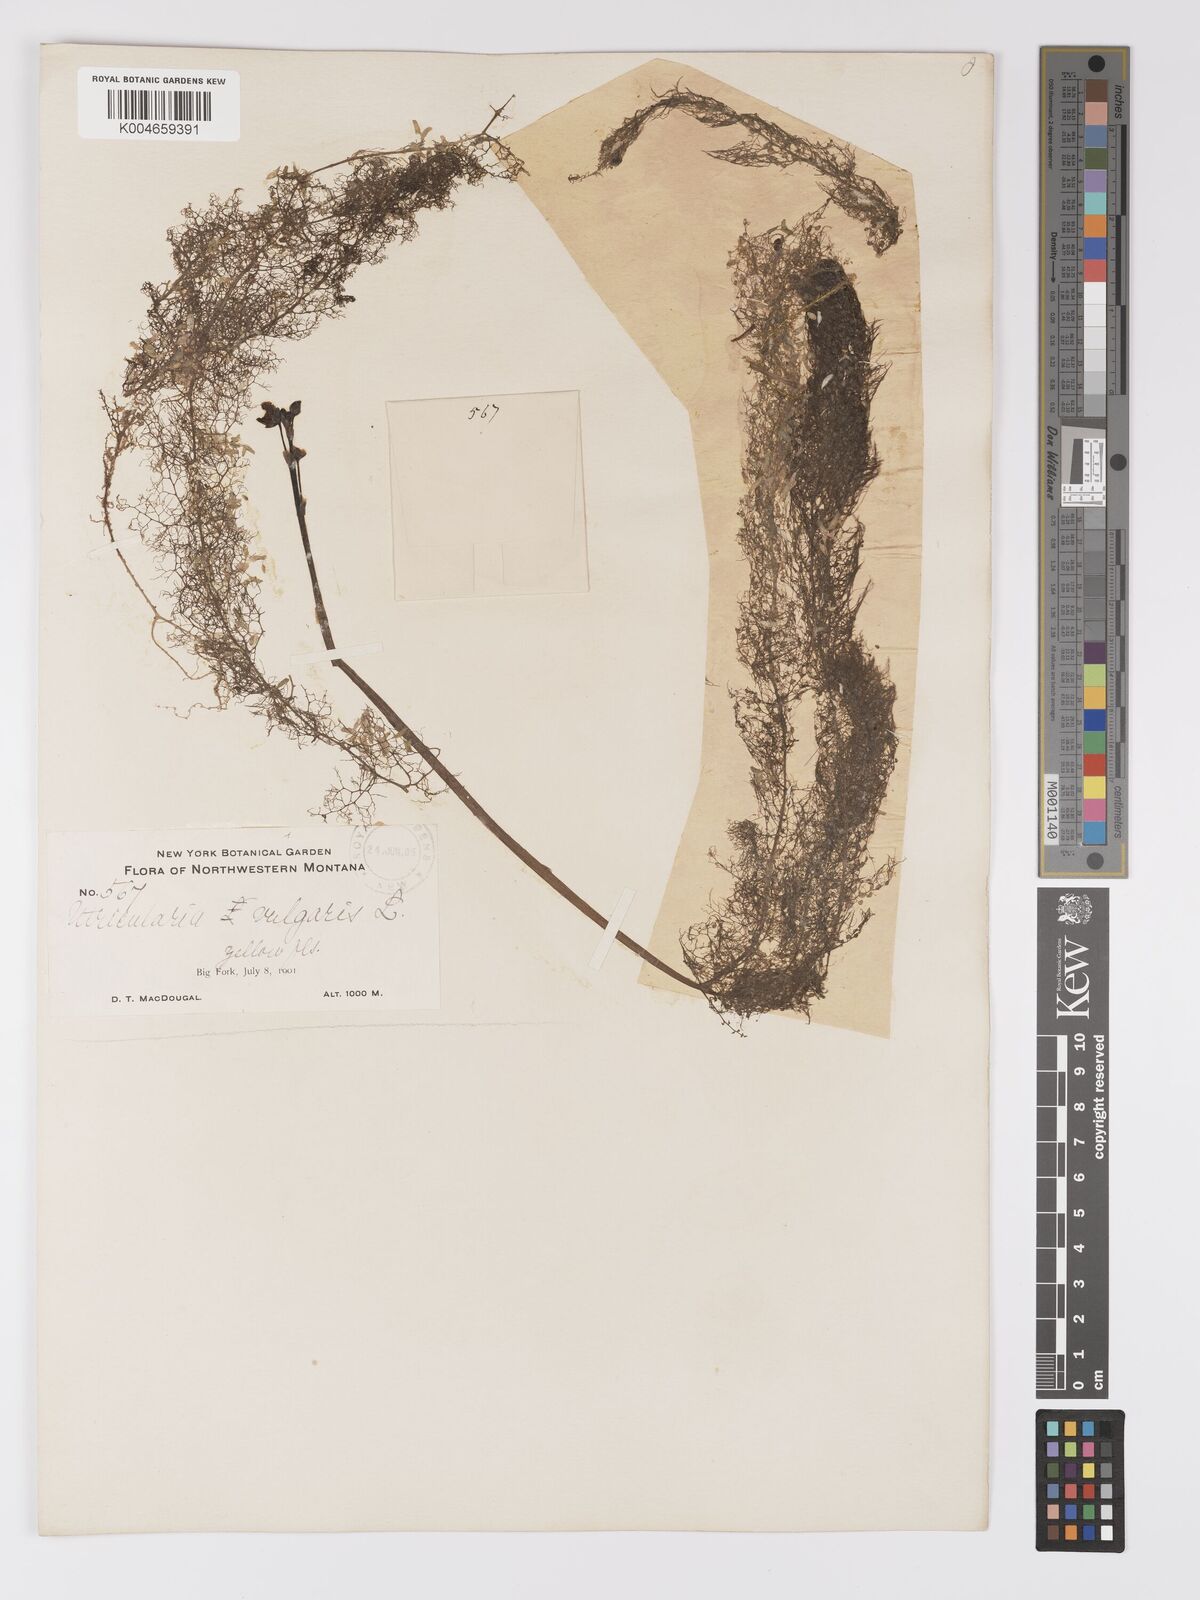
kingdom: Plantae
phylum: Tracheophyta
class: Magnoliopsida
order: Lamiales
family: Lentibulariaceae
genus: Utricularia
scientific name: Utricularia macrorhiza
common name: Common bladderwort
